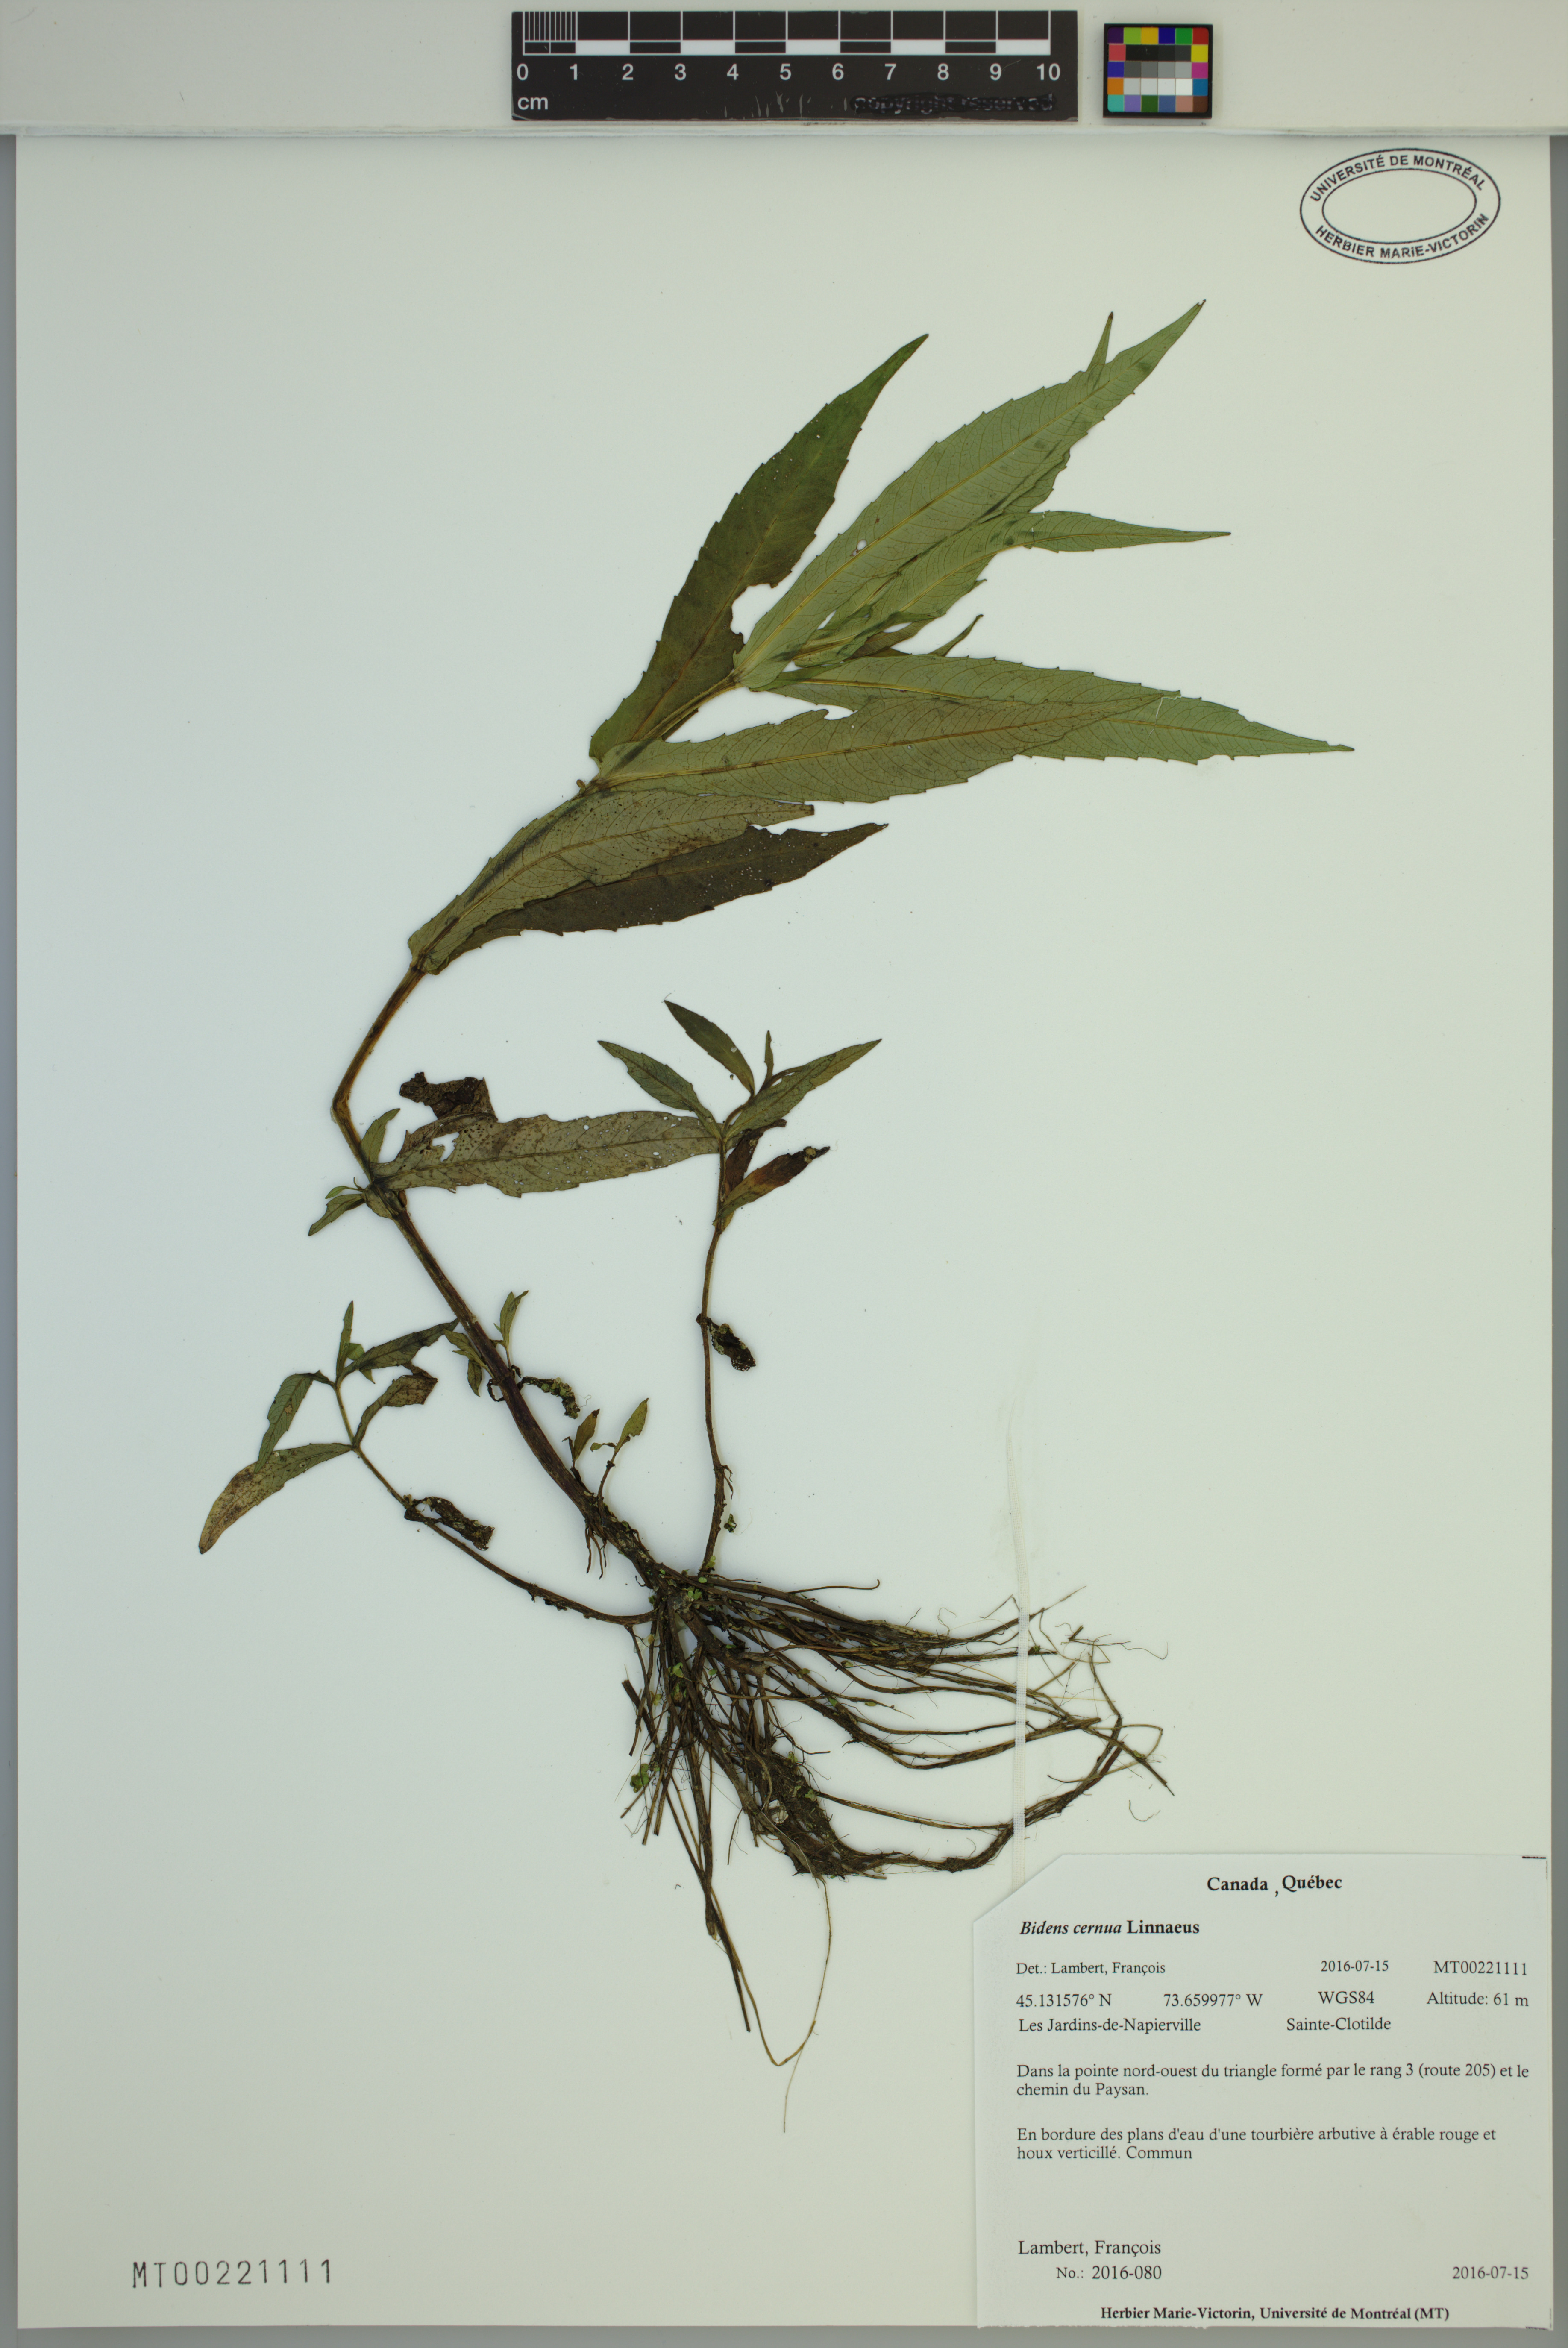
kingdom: Plantae
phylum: Tracheophyta
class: Magnoliopsida
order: Asterales
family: Asteraceae
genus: Bidens
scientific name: Bidens cernua
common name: Nodding bur-marigold
